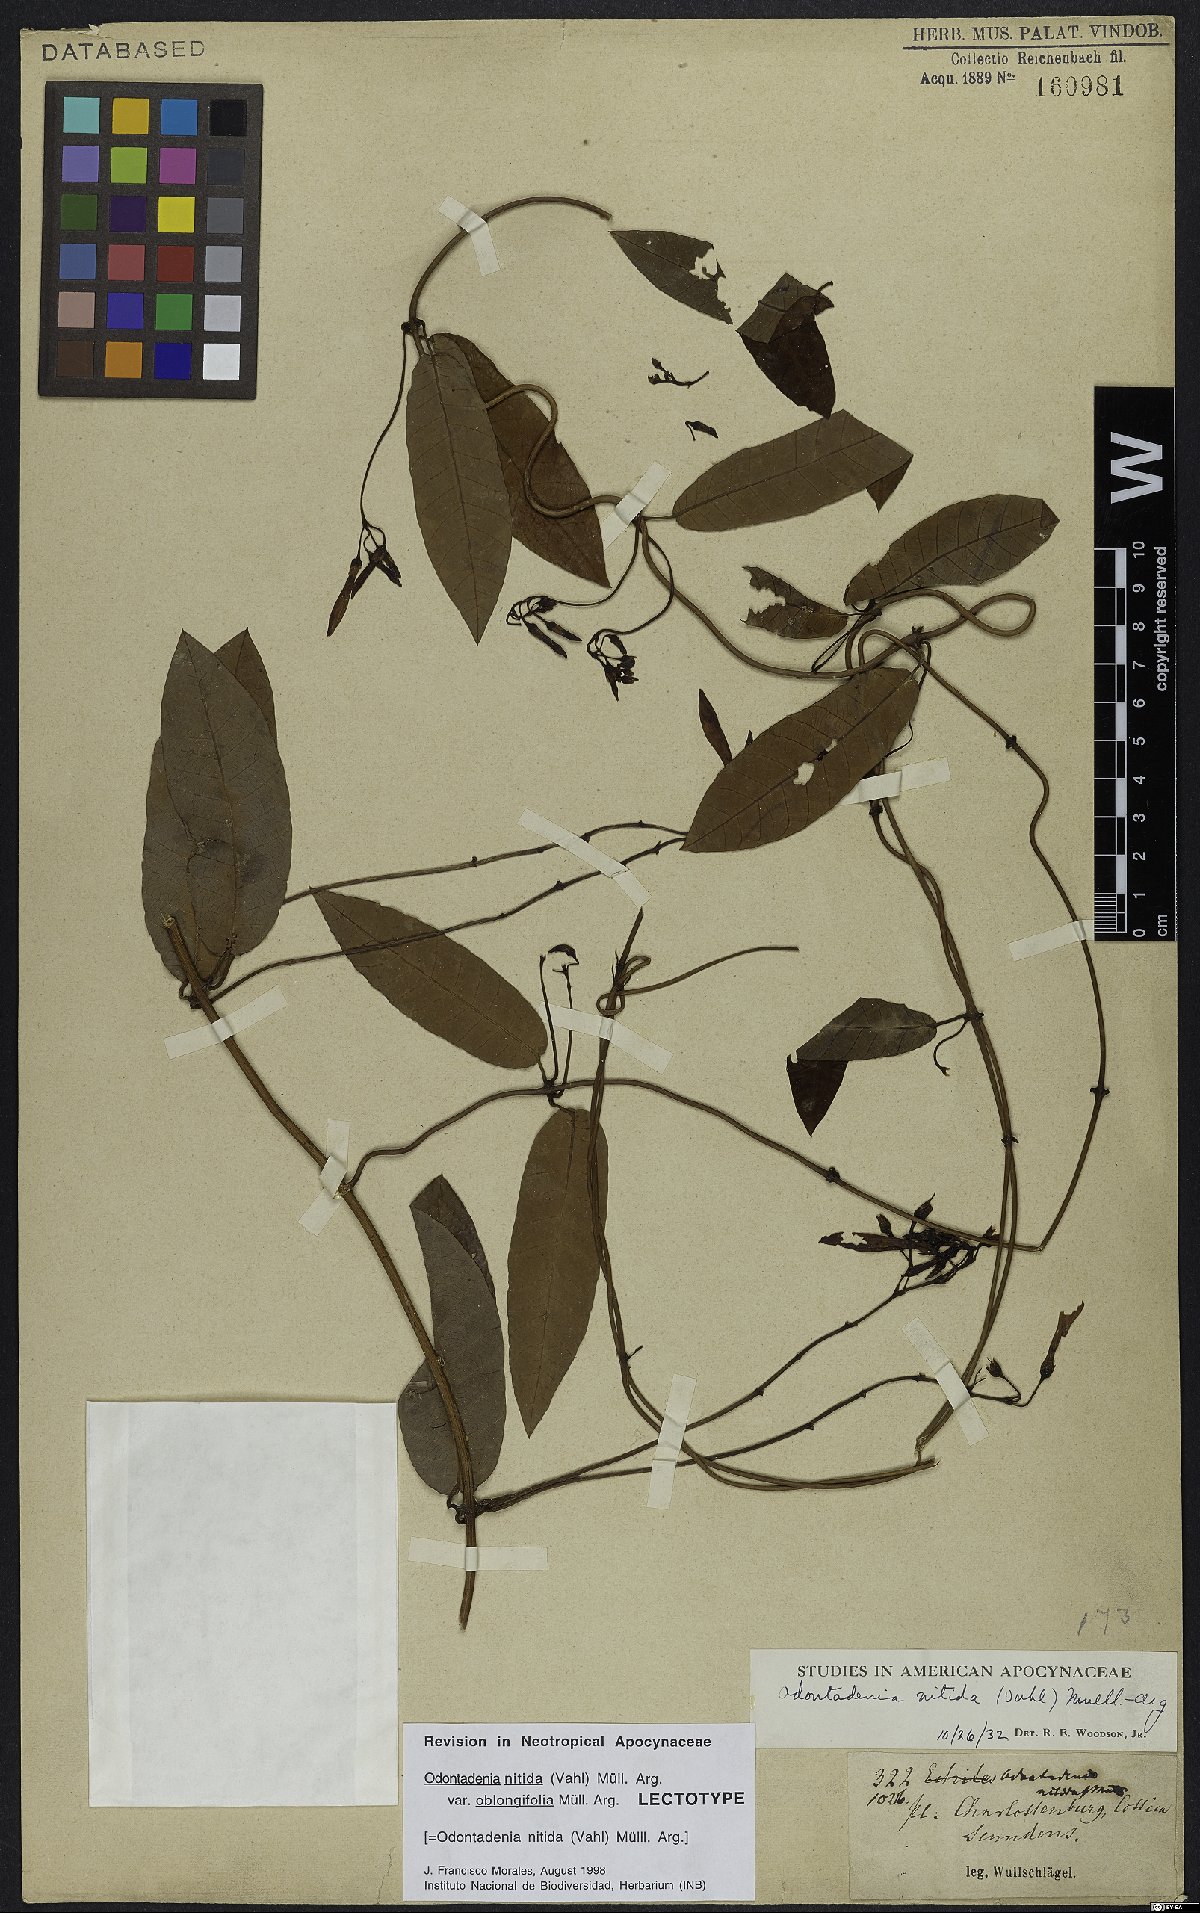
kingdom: Plantae
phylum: Tracheophyta
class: Magnoliopsida
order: Gentianales
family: Apocynaceae
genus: Odontadenia
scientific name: Odontadenia nitida
